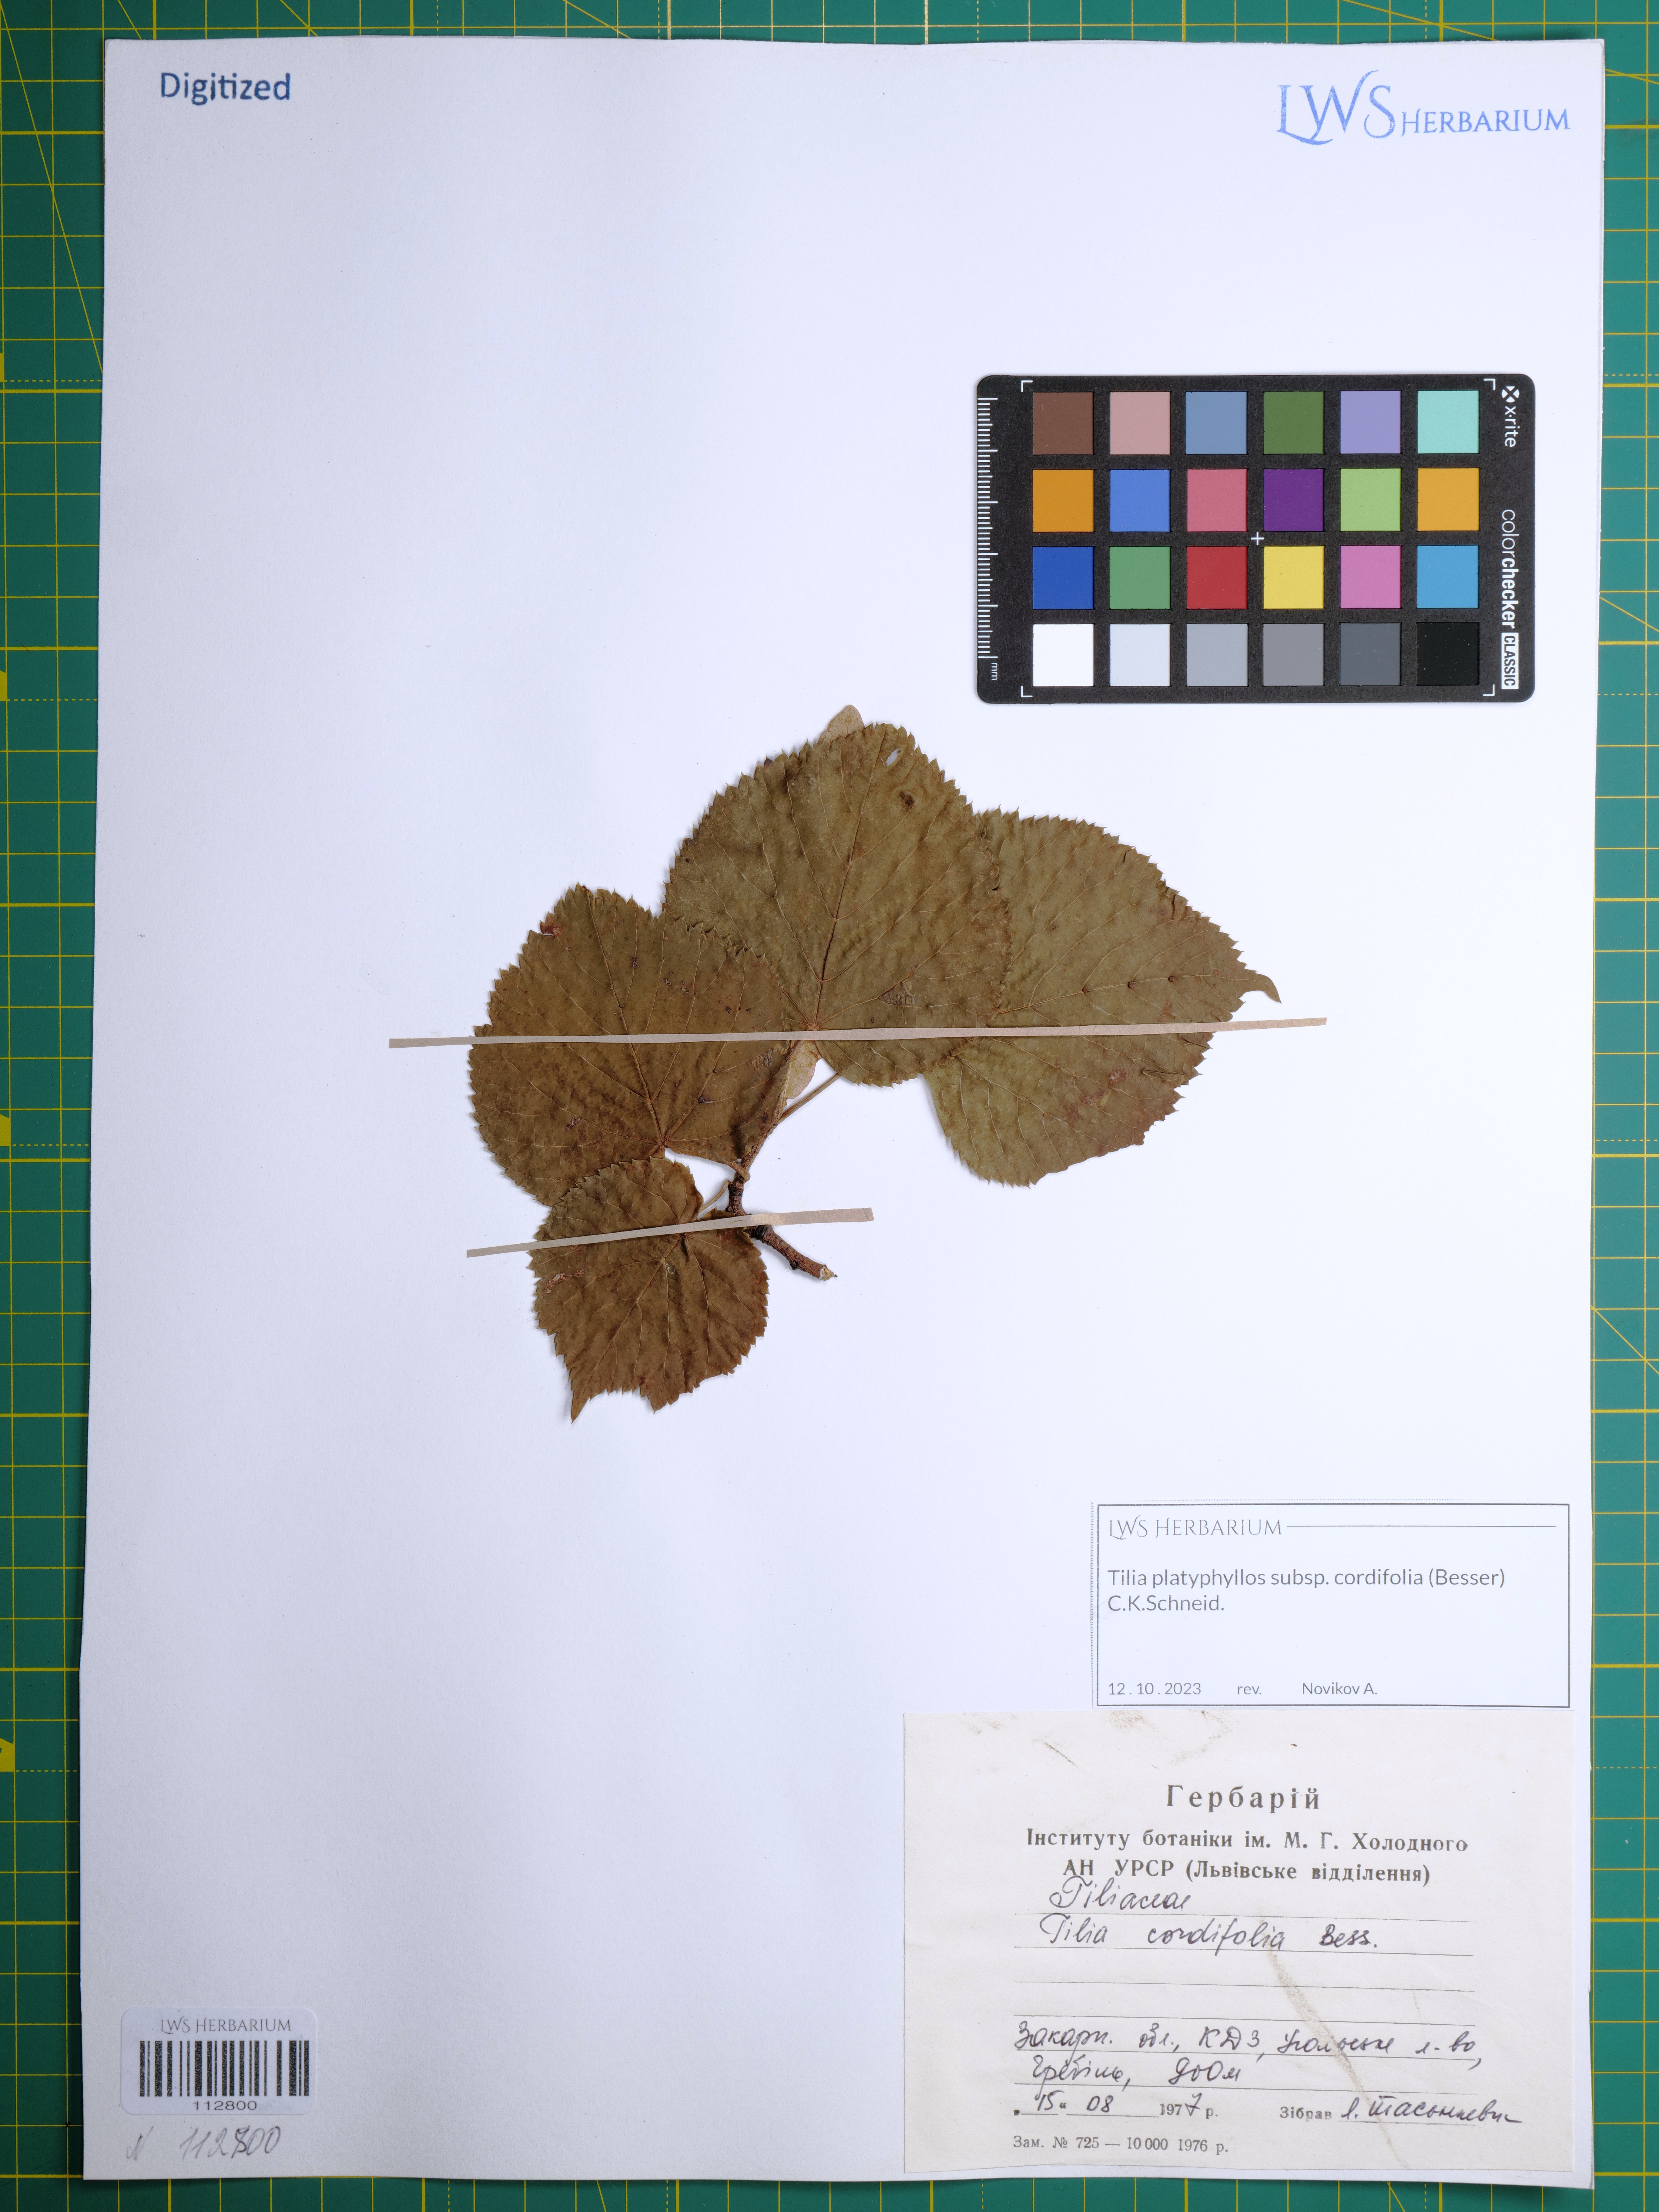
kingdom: Plantae
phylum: Tracheophyta
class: Magnoliopsida
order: Malvales
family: Malvaceae
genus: Tilia
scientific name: Tilia platyphyllos
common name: Large-leaved lime
